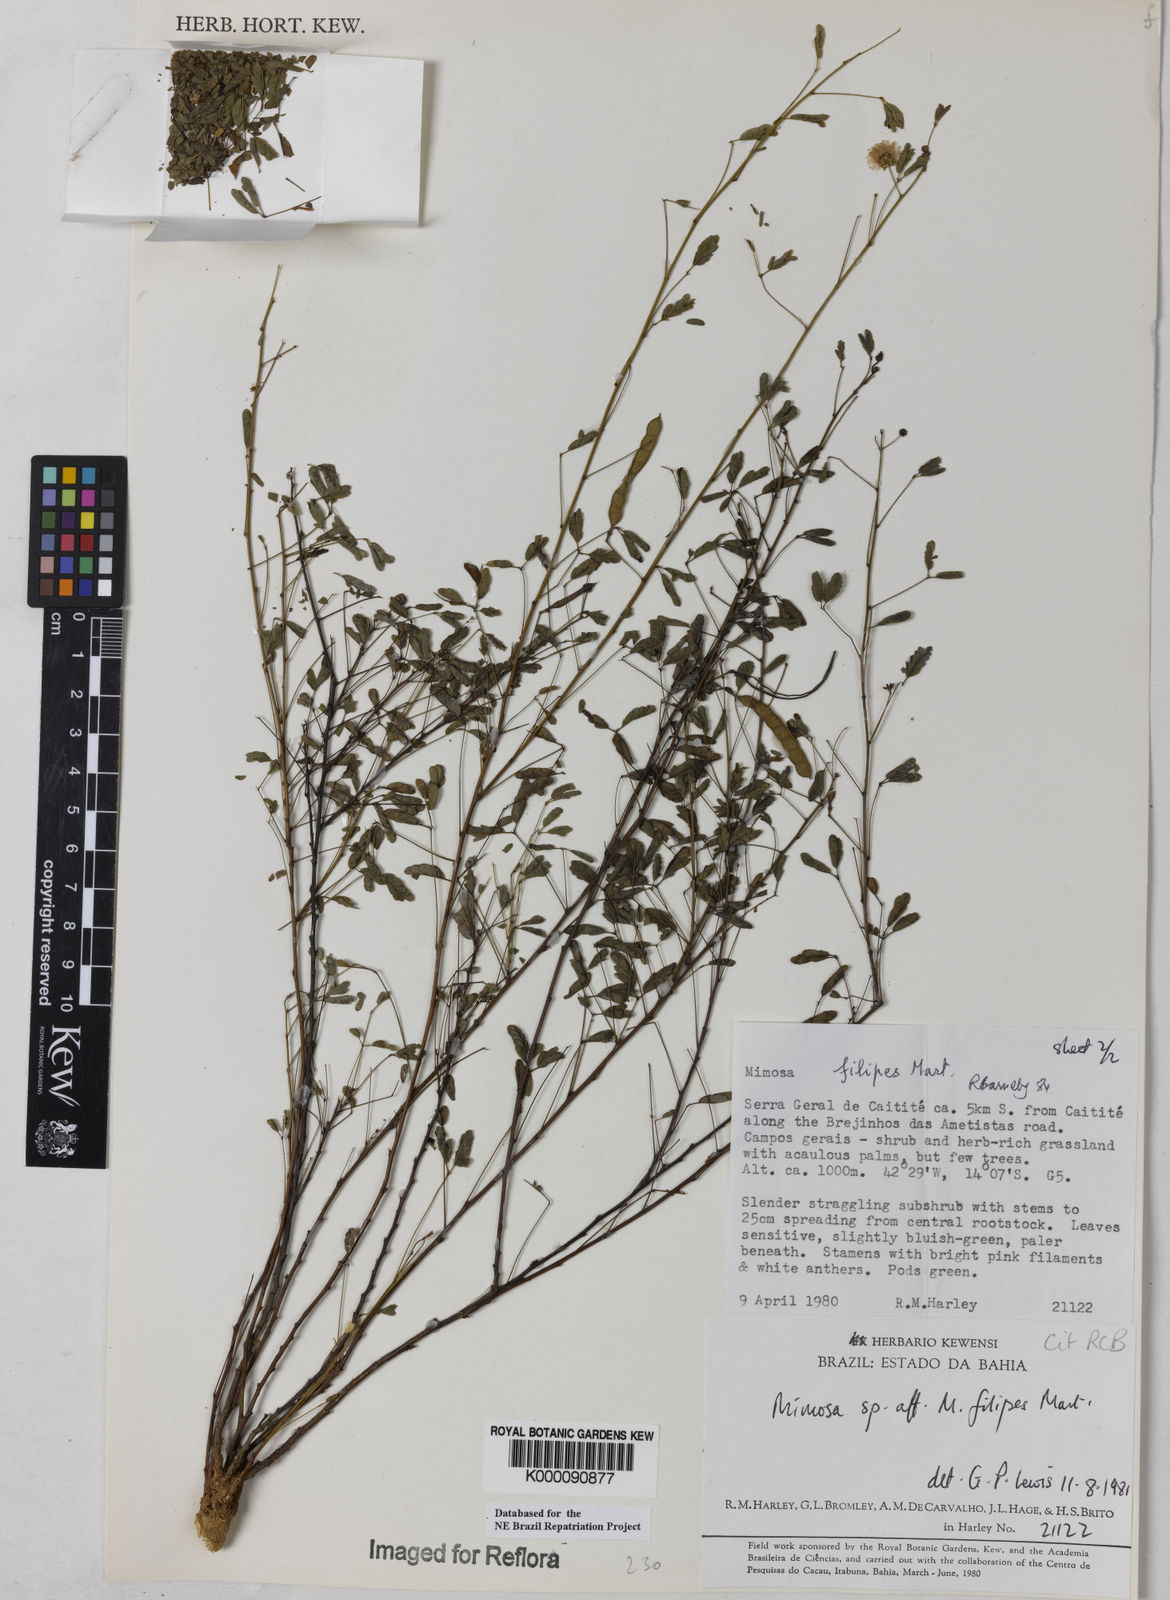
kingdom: Plantae
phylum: Tracheophyta
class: Magnoliopsida
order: Fabales
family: Fabaceae
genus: Mimosa
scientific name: Mimosa filipes
